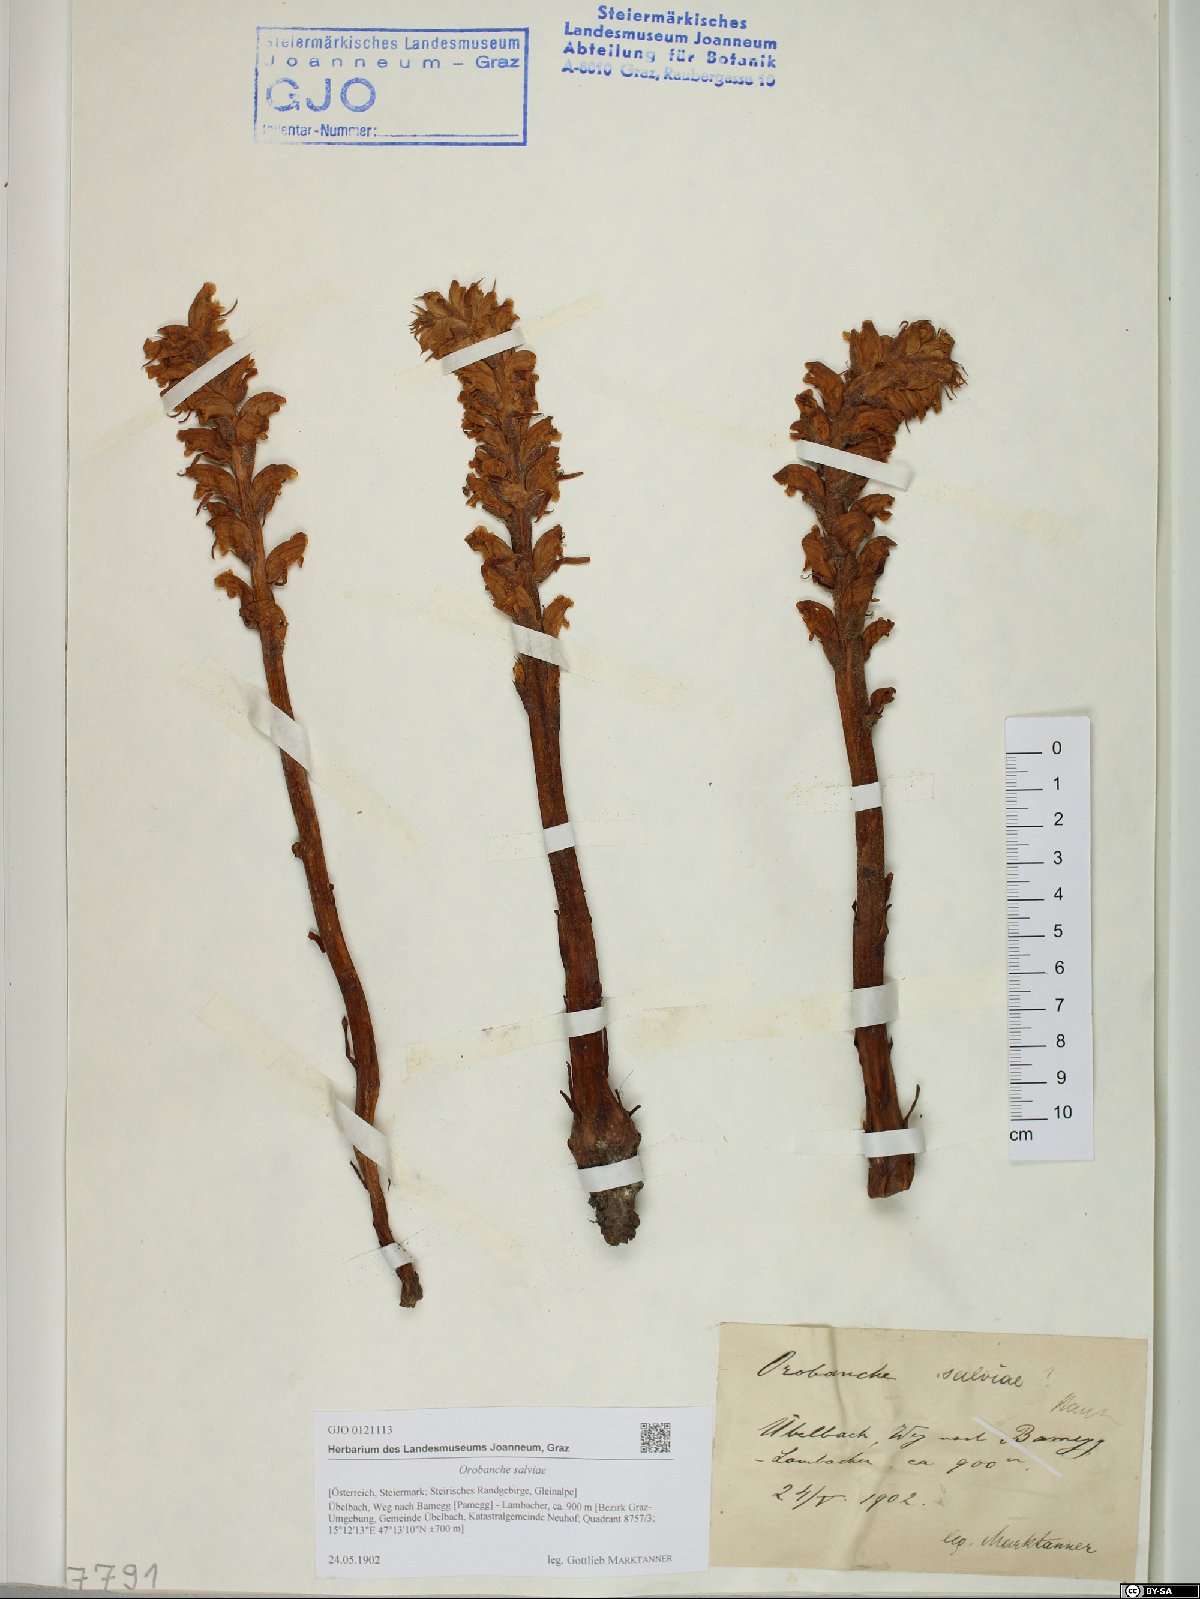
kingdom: Plantae
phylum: Tracheophyta
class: Magnoliopsida
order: Lamiales
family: Orobanchaceae
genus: Orobanche
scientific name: Orobanche salviae
